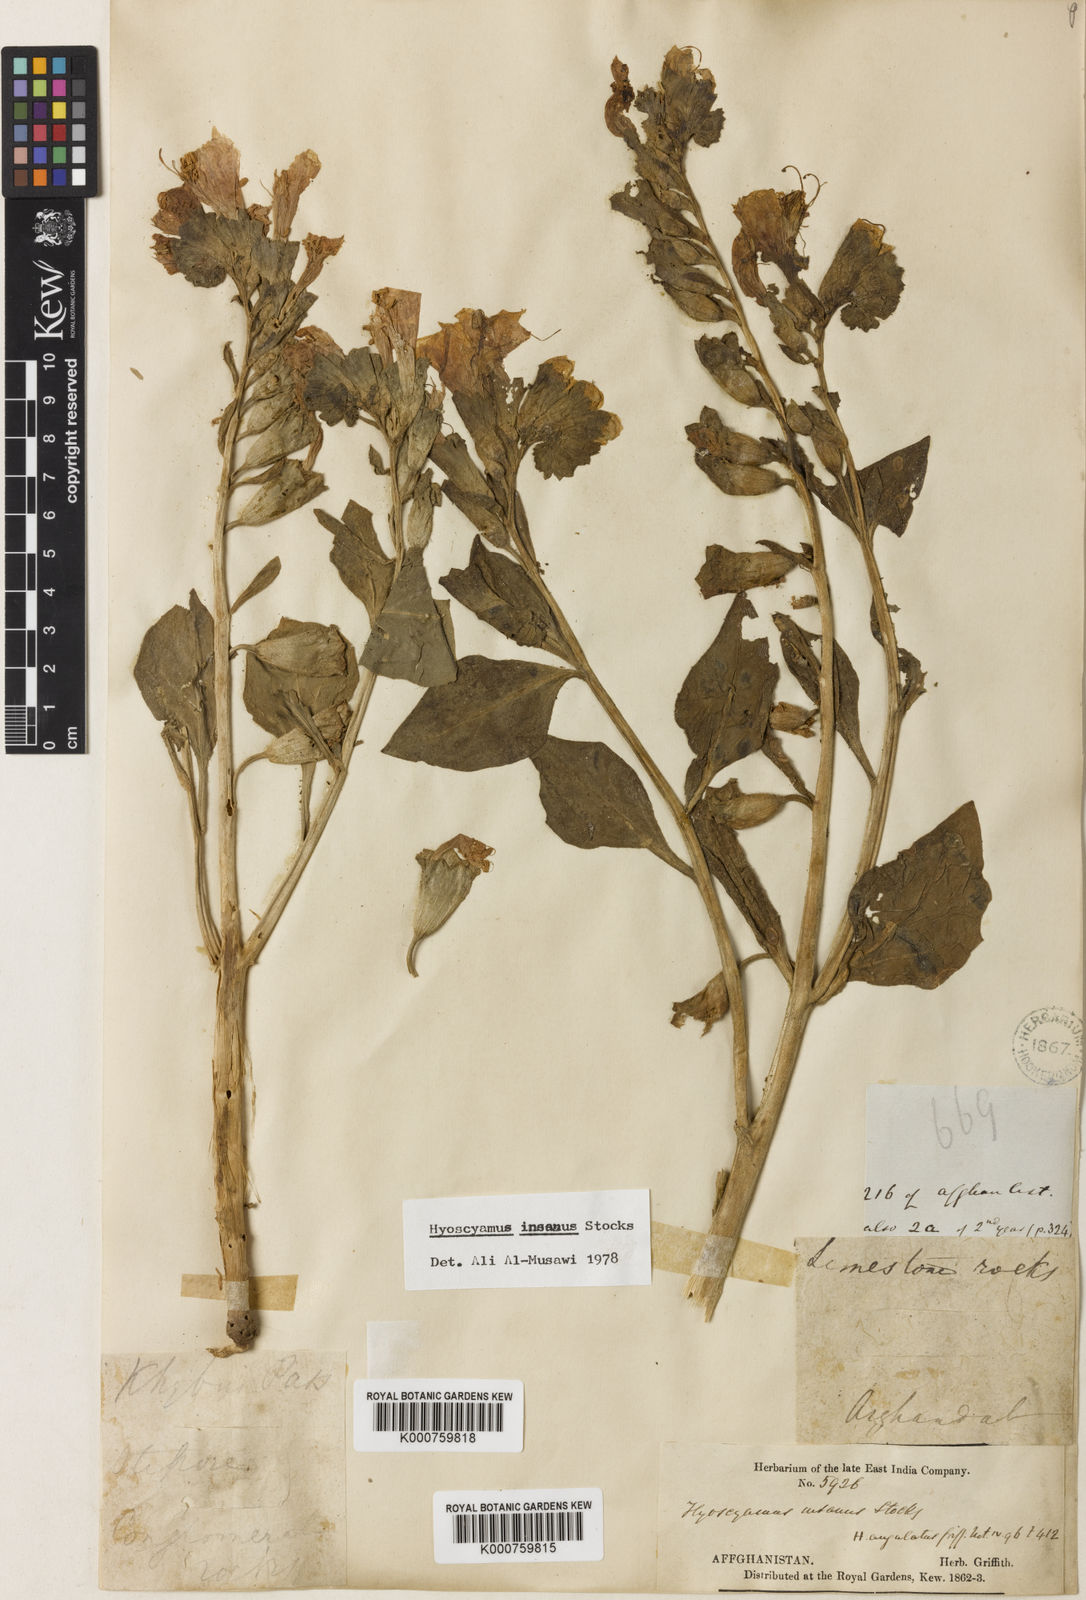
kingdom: Plantae
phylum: Tracheophyta
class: Magnoliopsida
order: Solanales
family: Solanaceae
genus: Hyoscyamus
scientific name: Hyoscyamus insanus
